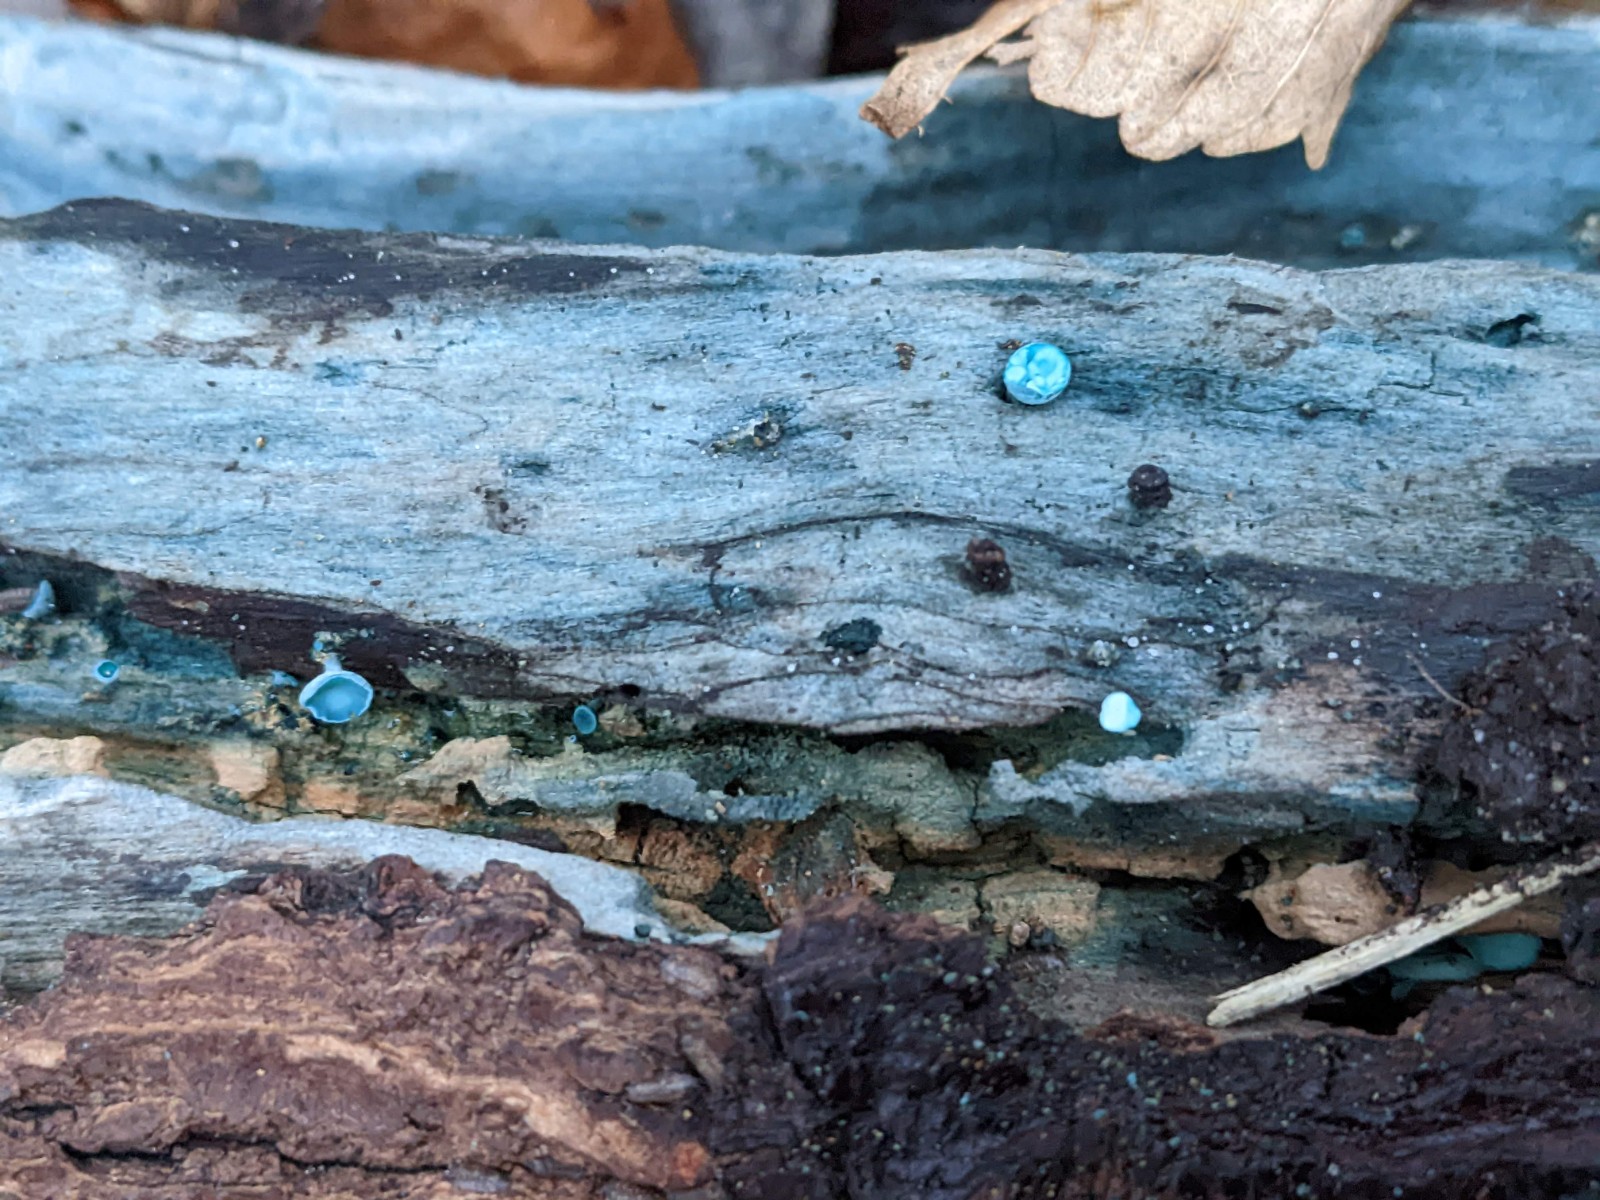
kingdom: Fungi
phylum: Ascomycota
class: Leotiomycetes
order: Helotiales
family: Chlorociboriaceae
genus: Chlorociboria
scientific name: Chlorociboria aeruginascens
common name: almindelig grønskive
